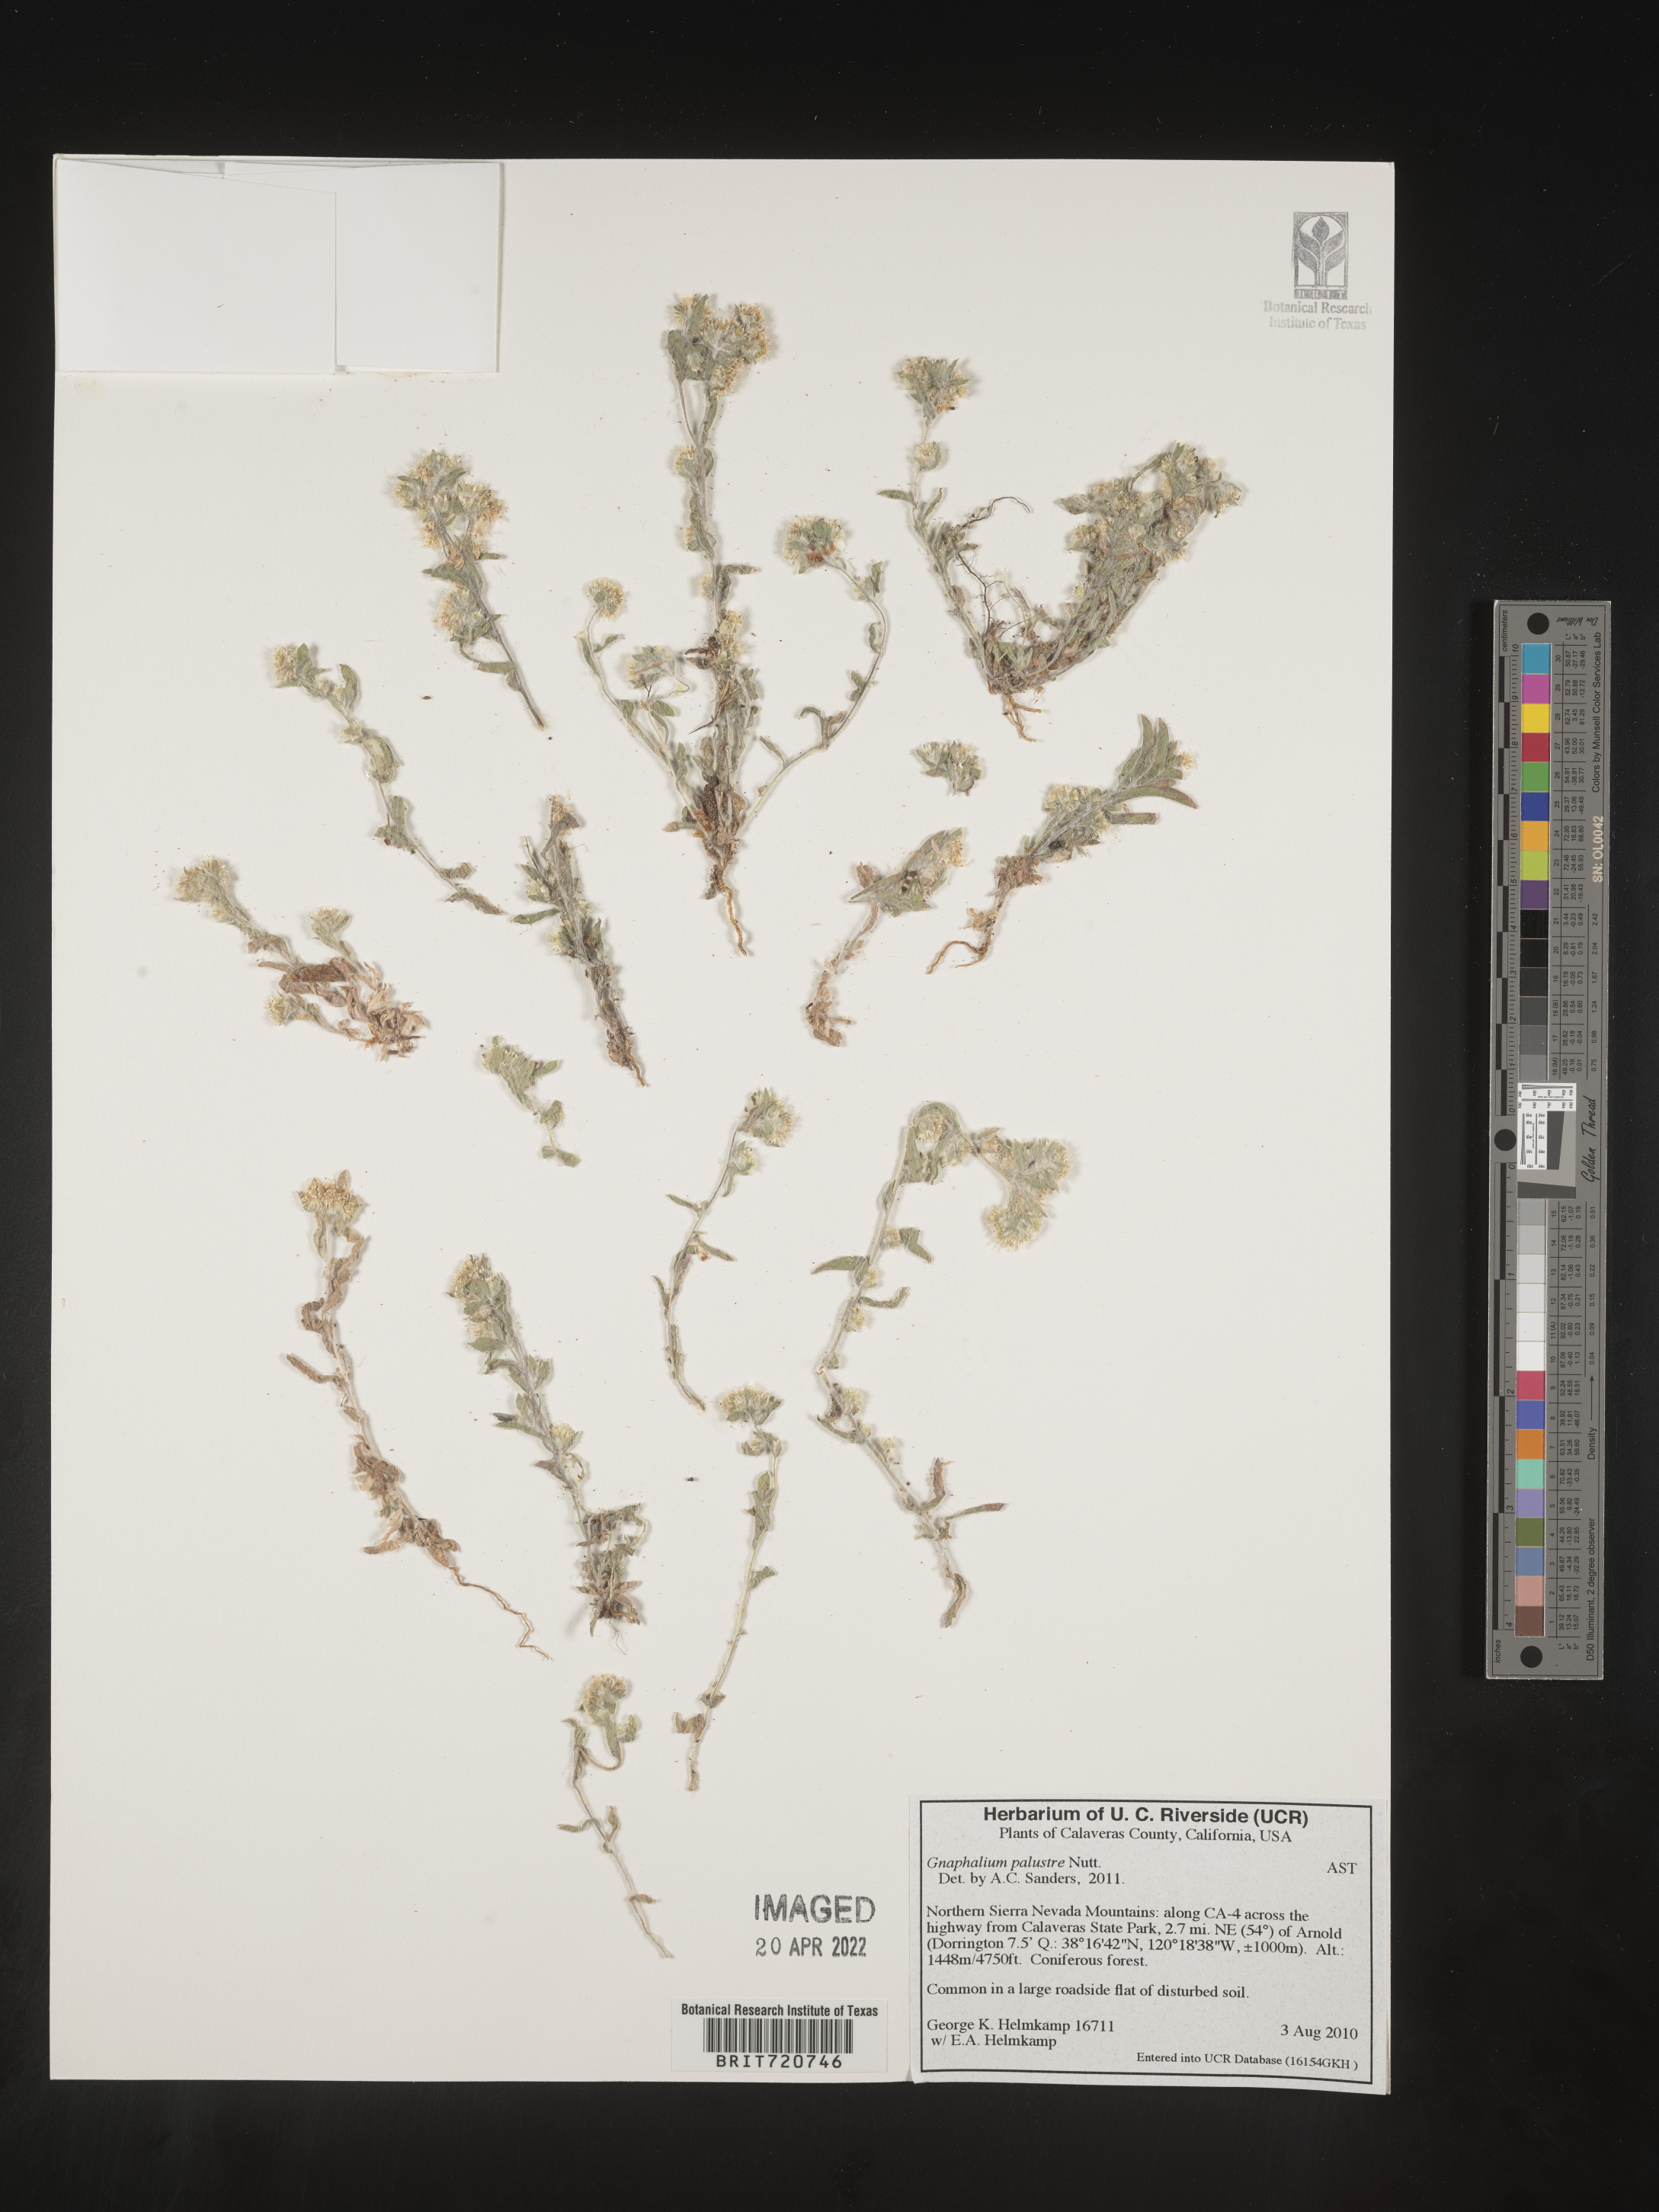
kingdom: Plantae
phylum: Tracheophyta
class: Magnoliopsida
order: Asterales
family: Asteraceae
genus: Gnaphalium
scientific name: Gnaphalium
